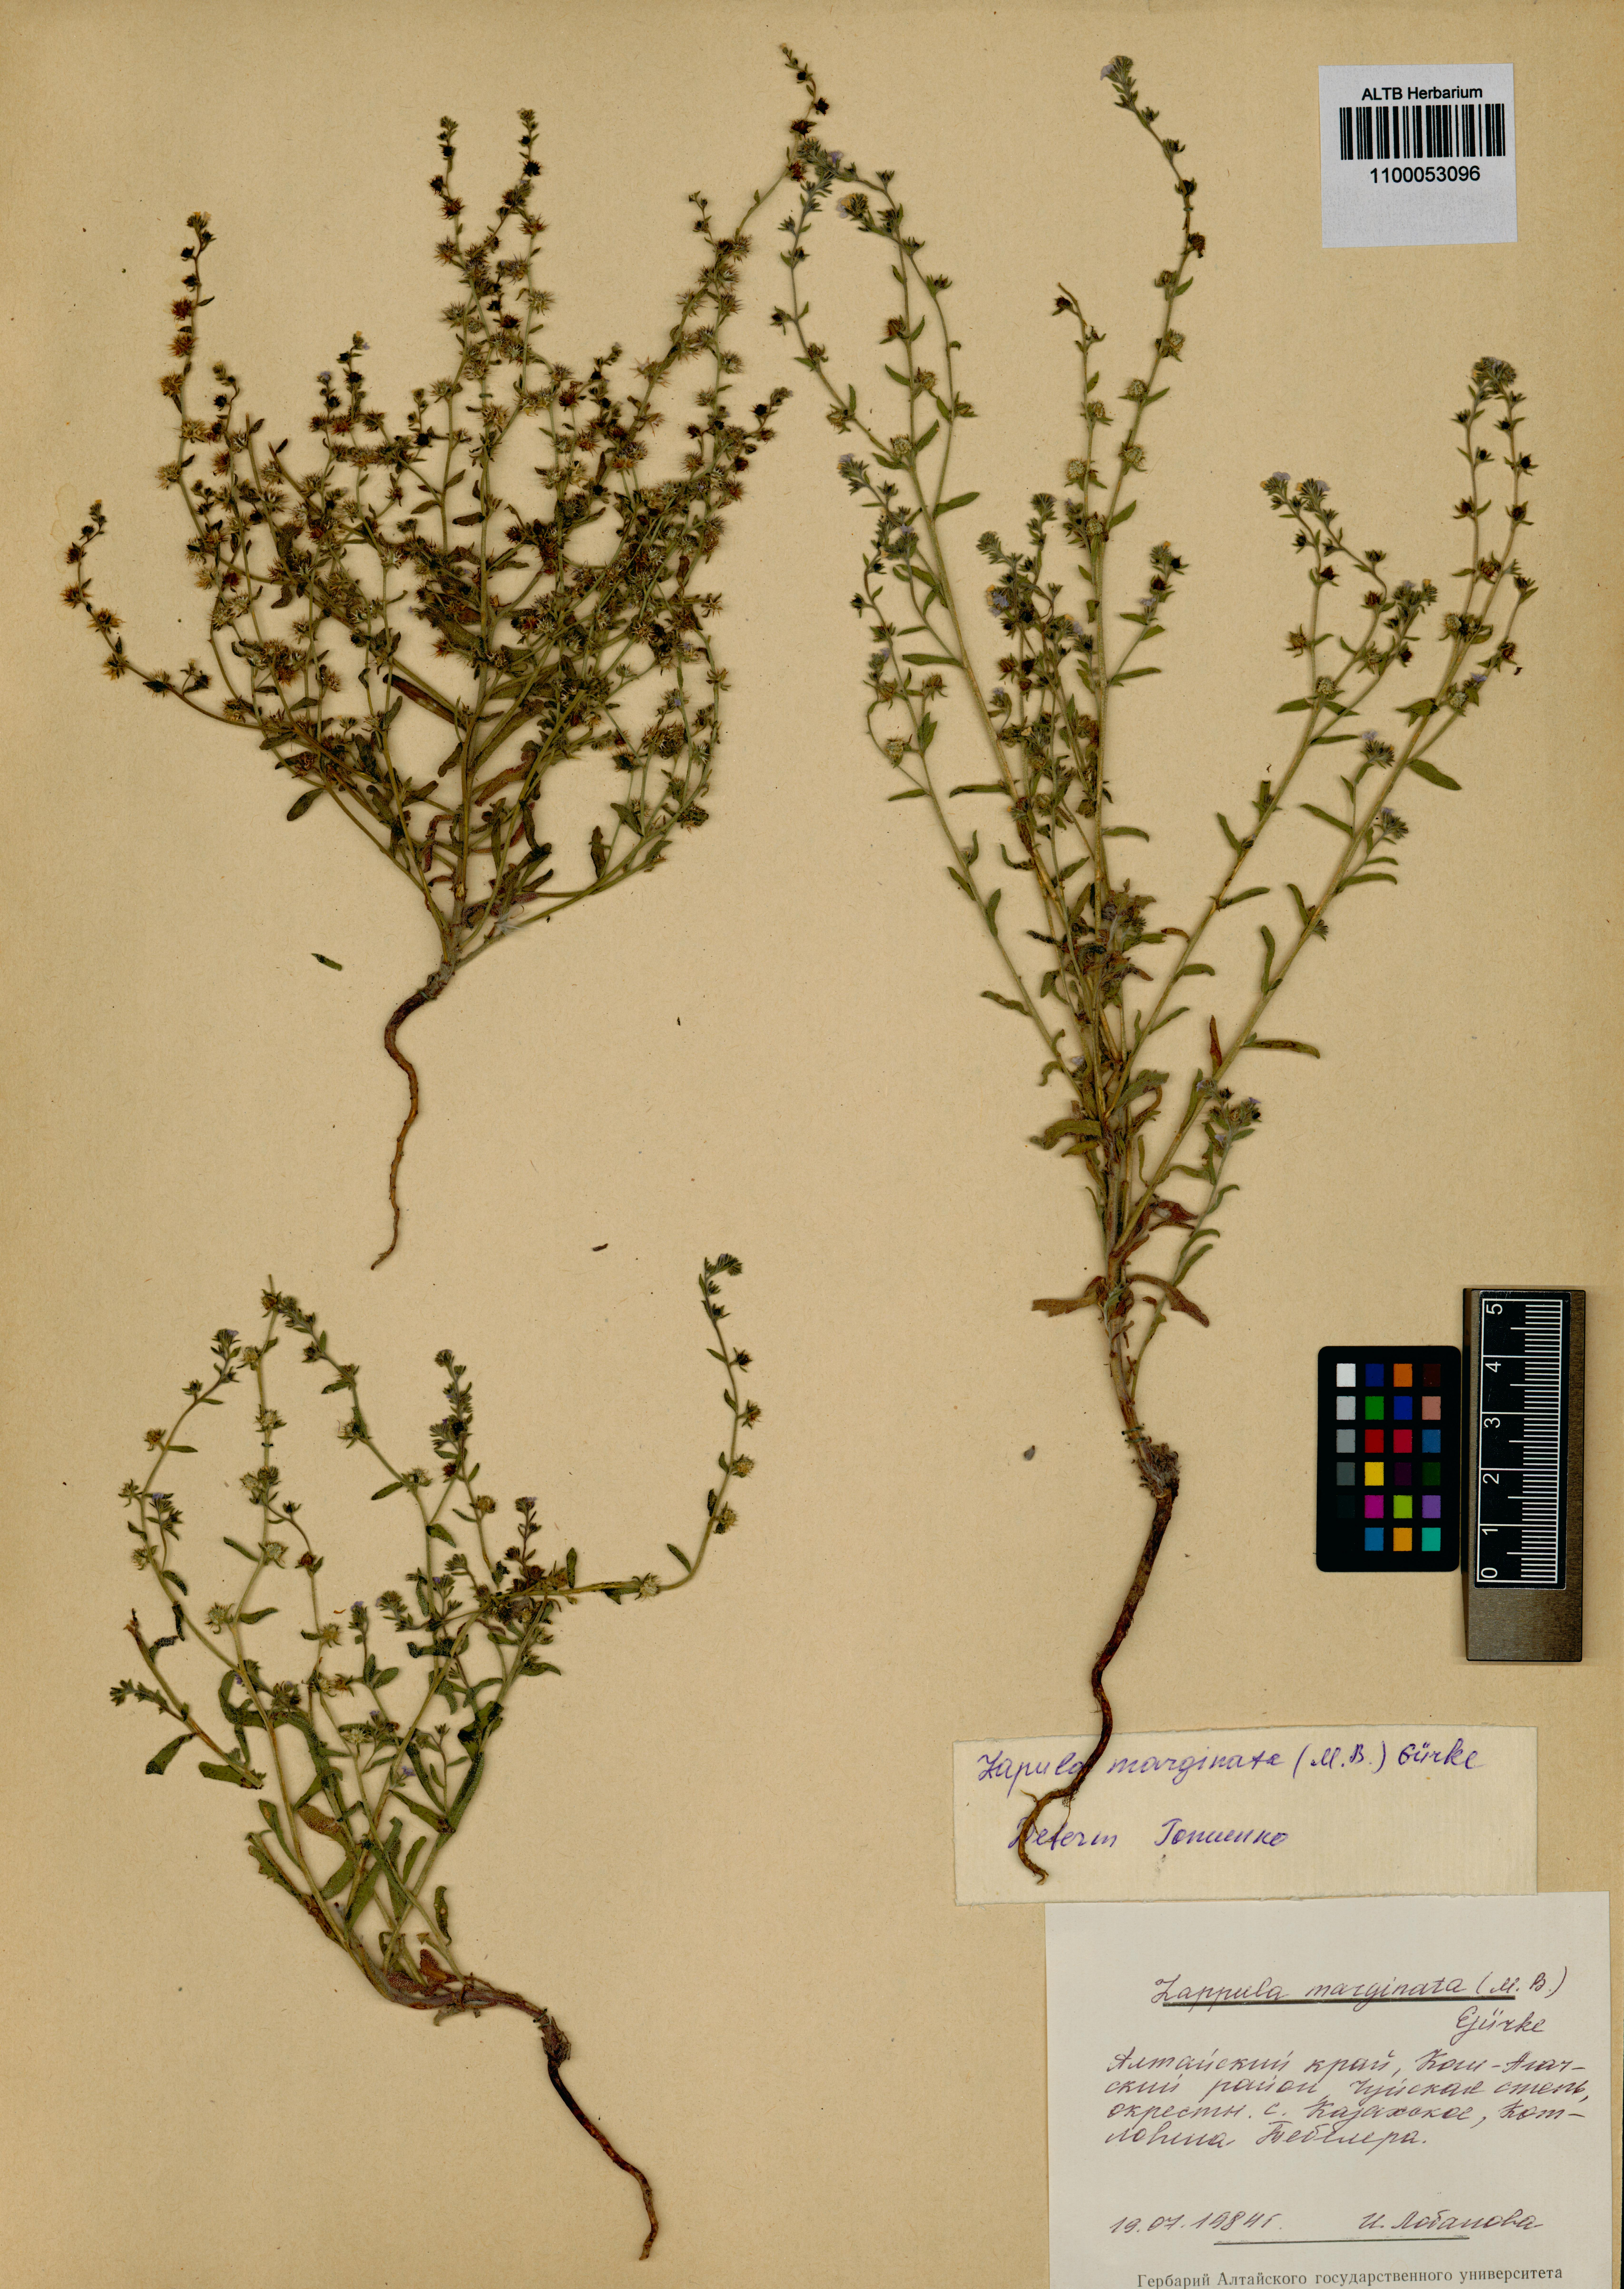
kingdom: Plantae
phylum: Tracheophyta
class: Magnoliopsida
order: Boraginales
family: Boraginaceae
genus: Lappula
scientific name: Lappula marginata
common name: Margined stickseed
